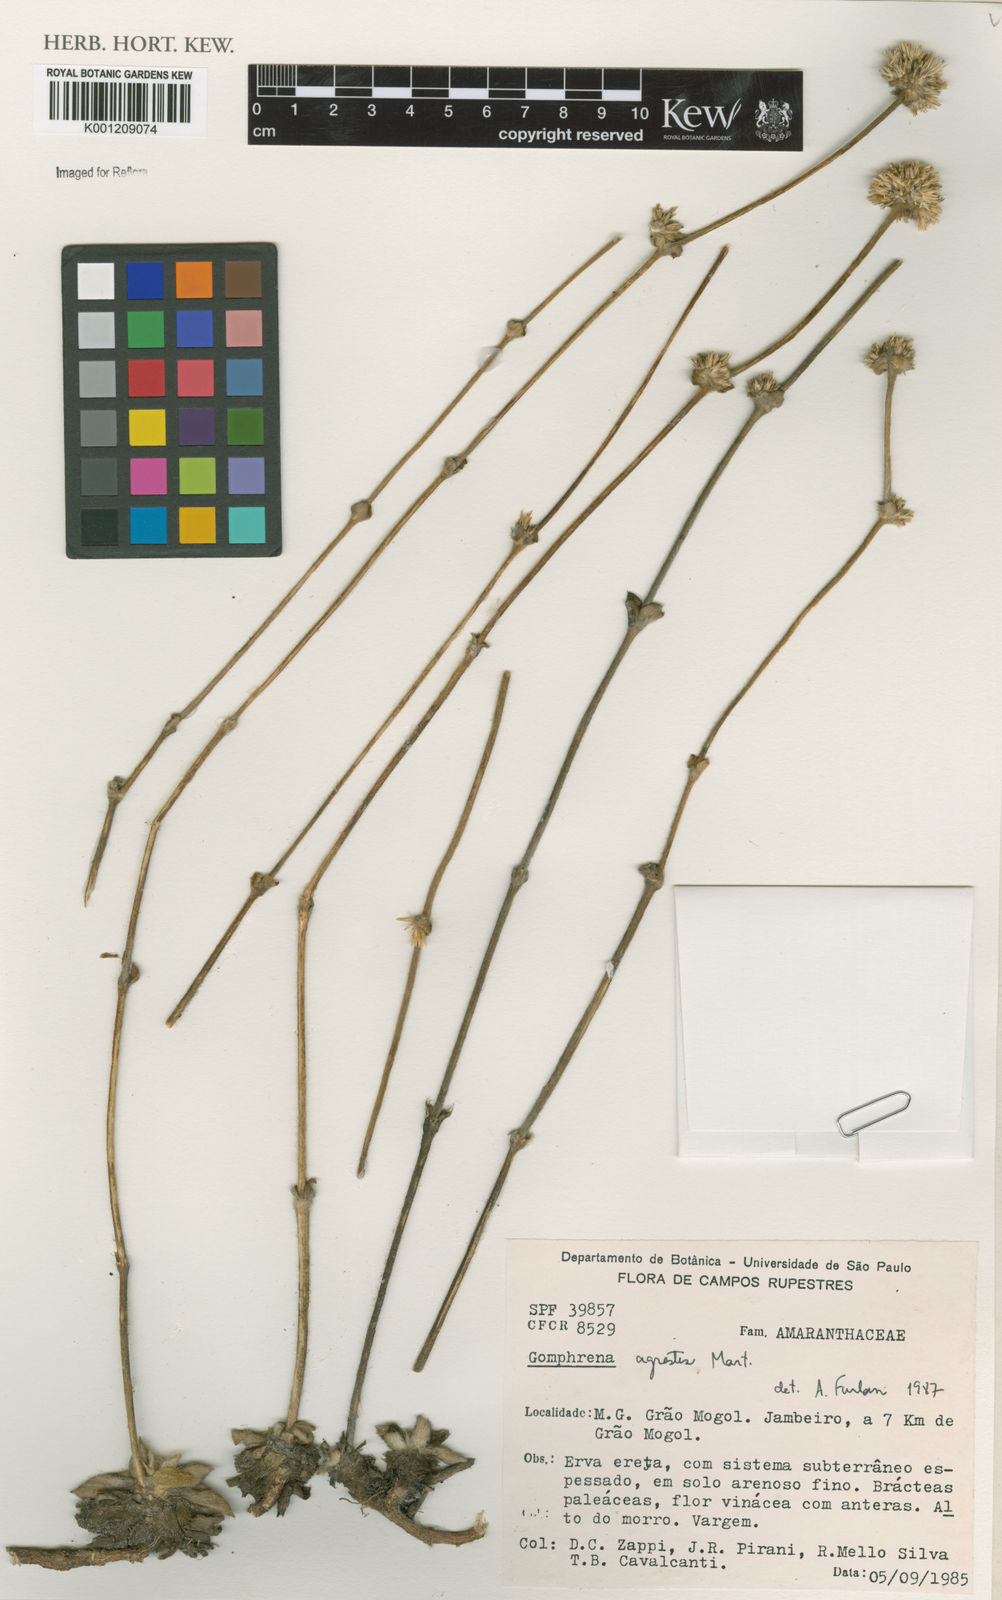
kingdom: Plantae
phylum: Tracheophyta
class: Magnoliopsida
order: Caryophyllales
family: Amaranthaceae
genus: Gomphrena
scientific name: Gomphrena agrestis
